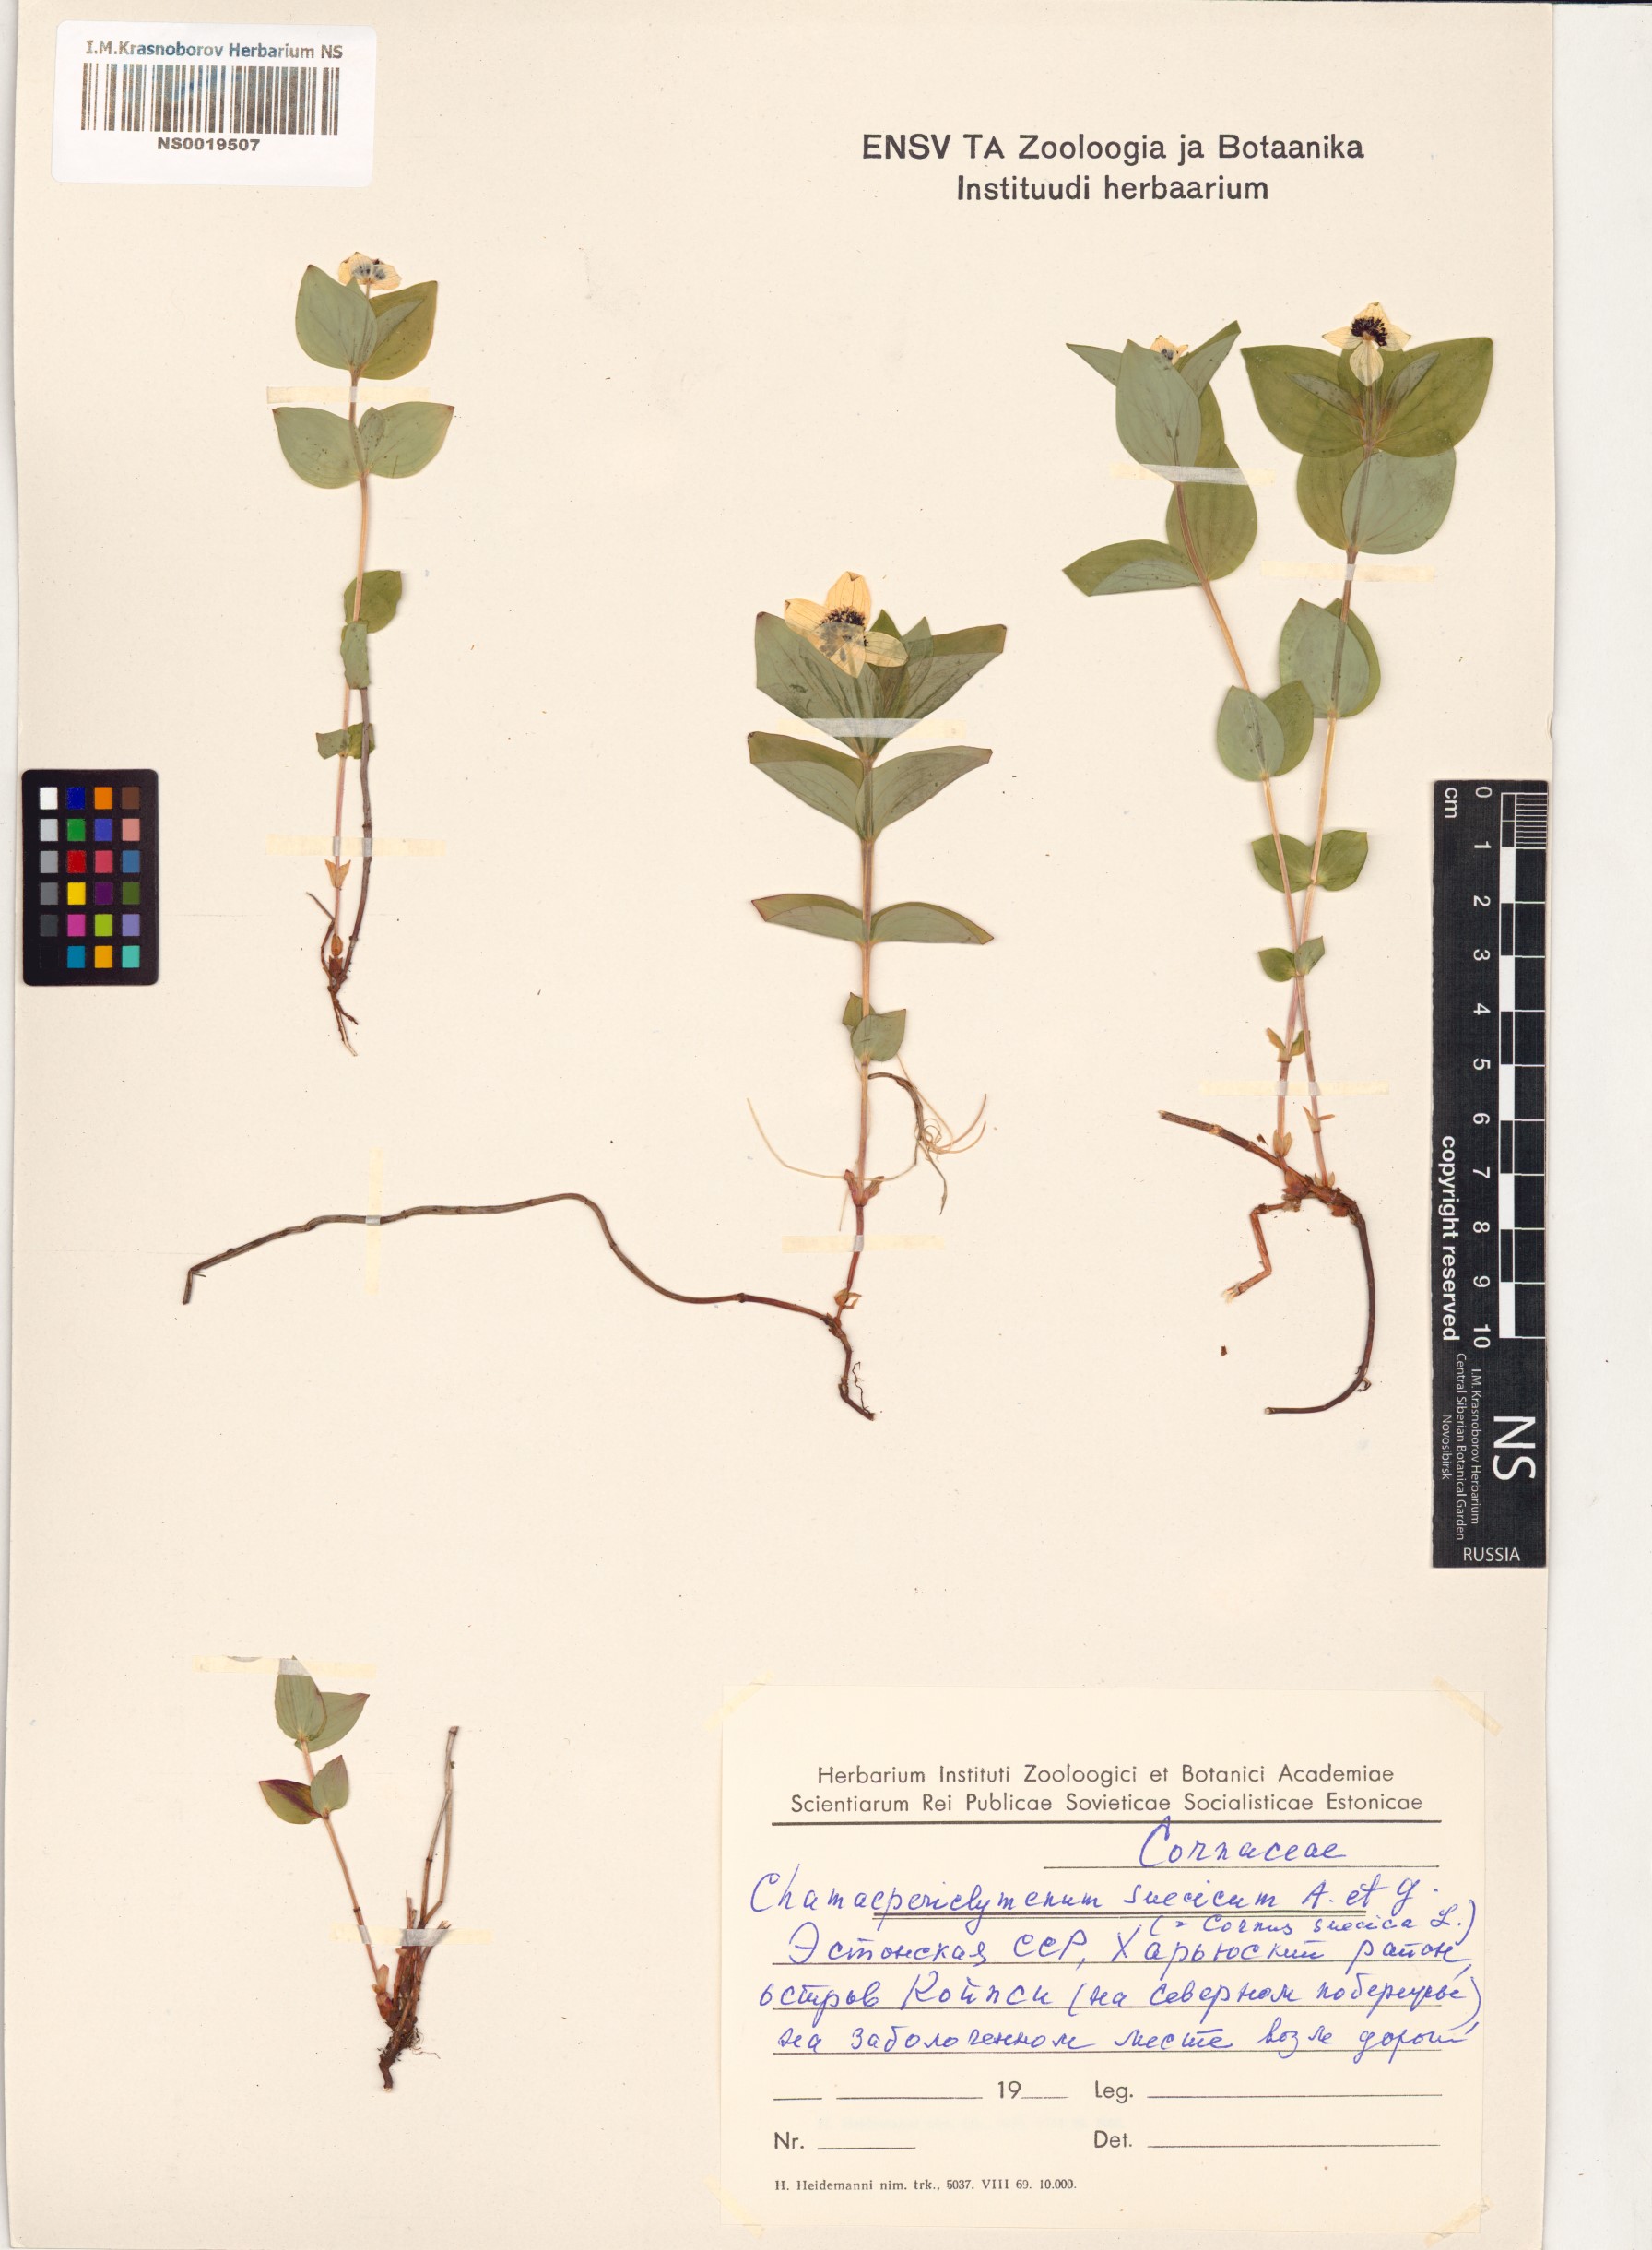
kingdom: Plantae
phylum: Tracheophyta
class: Magnoliopsida
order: Cornales
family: Cornaceae
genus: Cornus
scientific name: Cornus suecica
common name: Dwarf cornel
